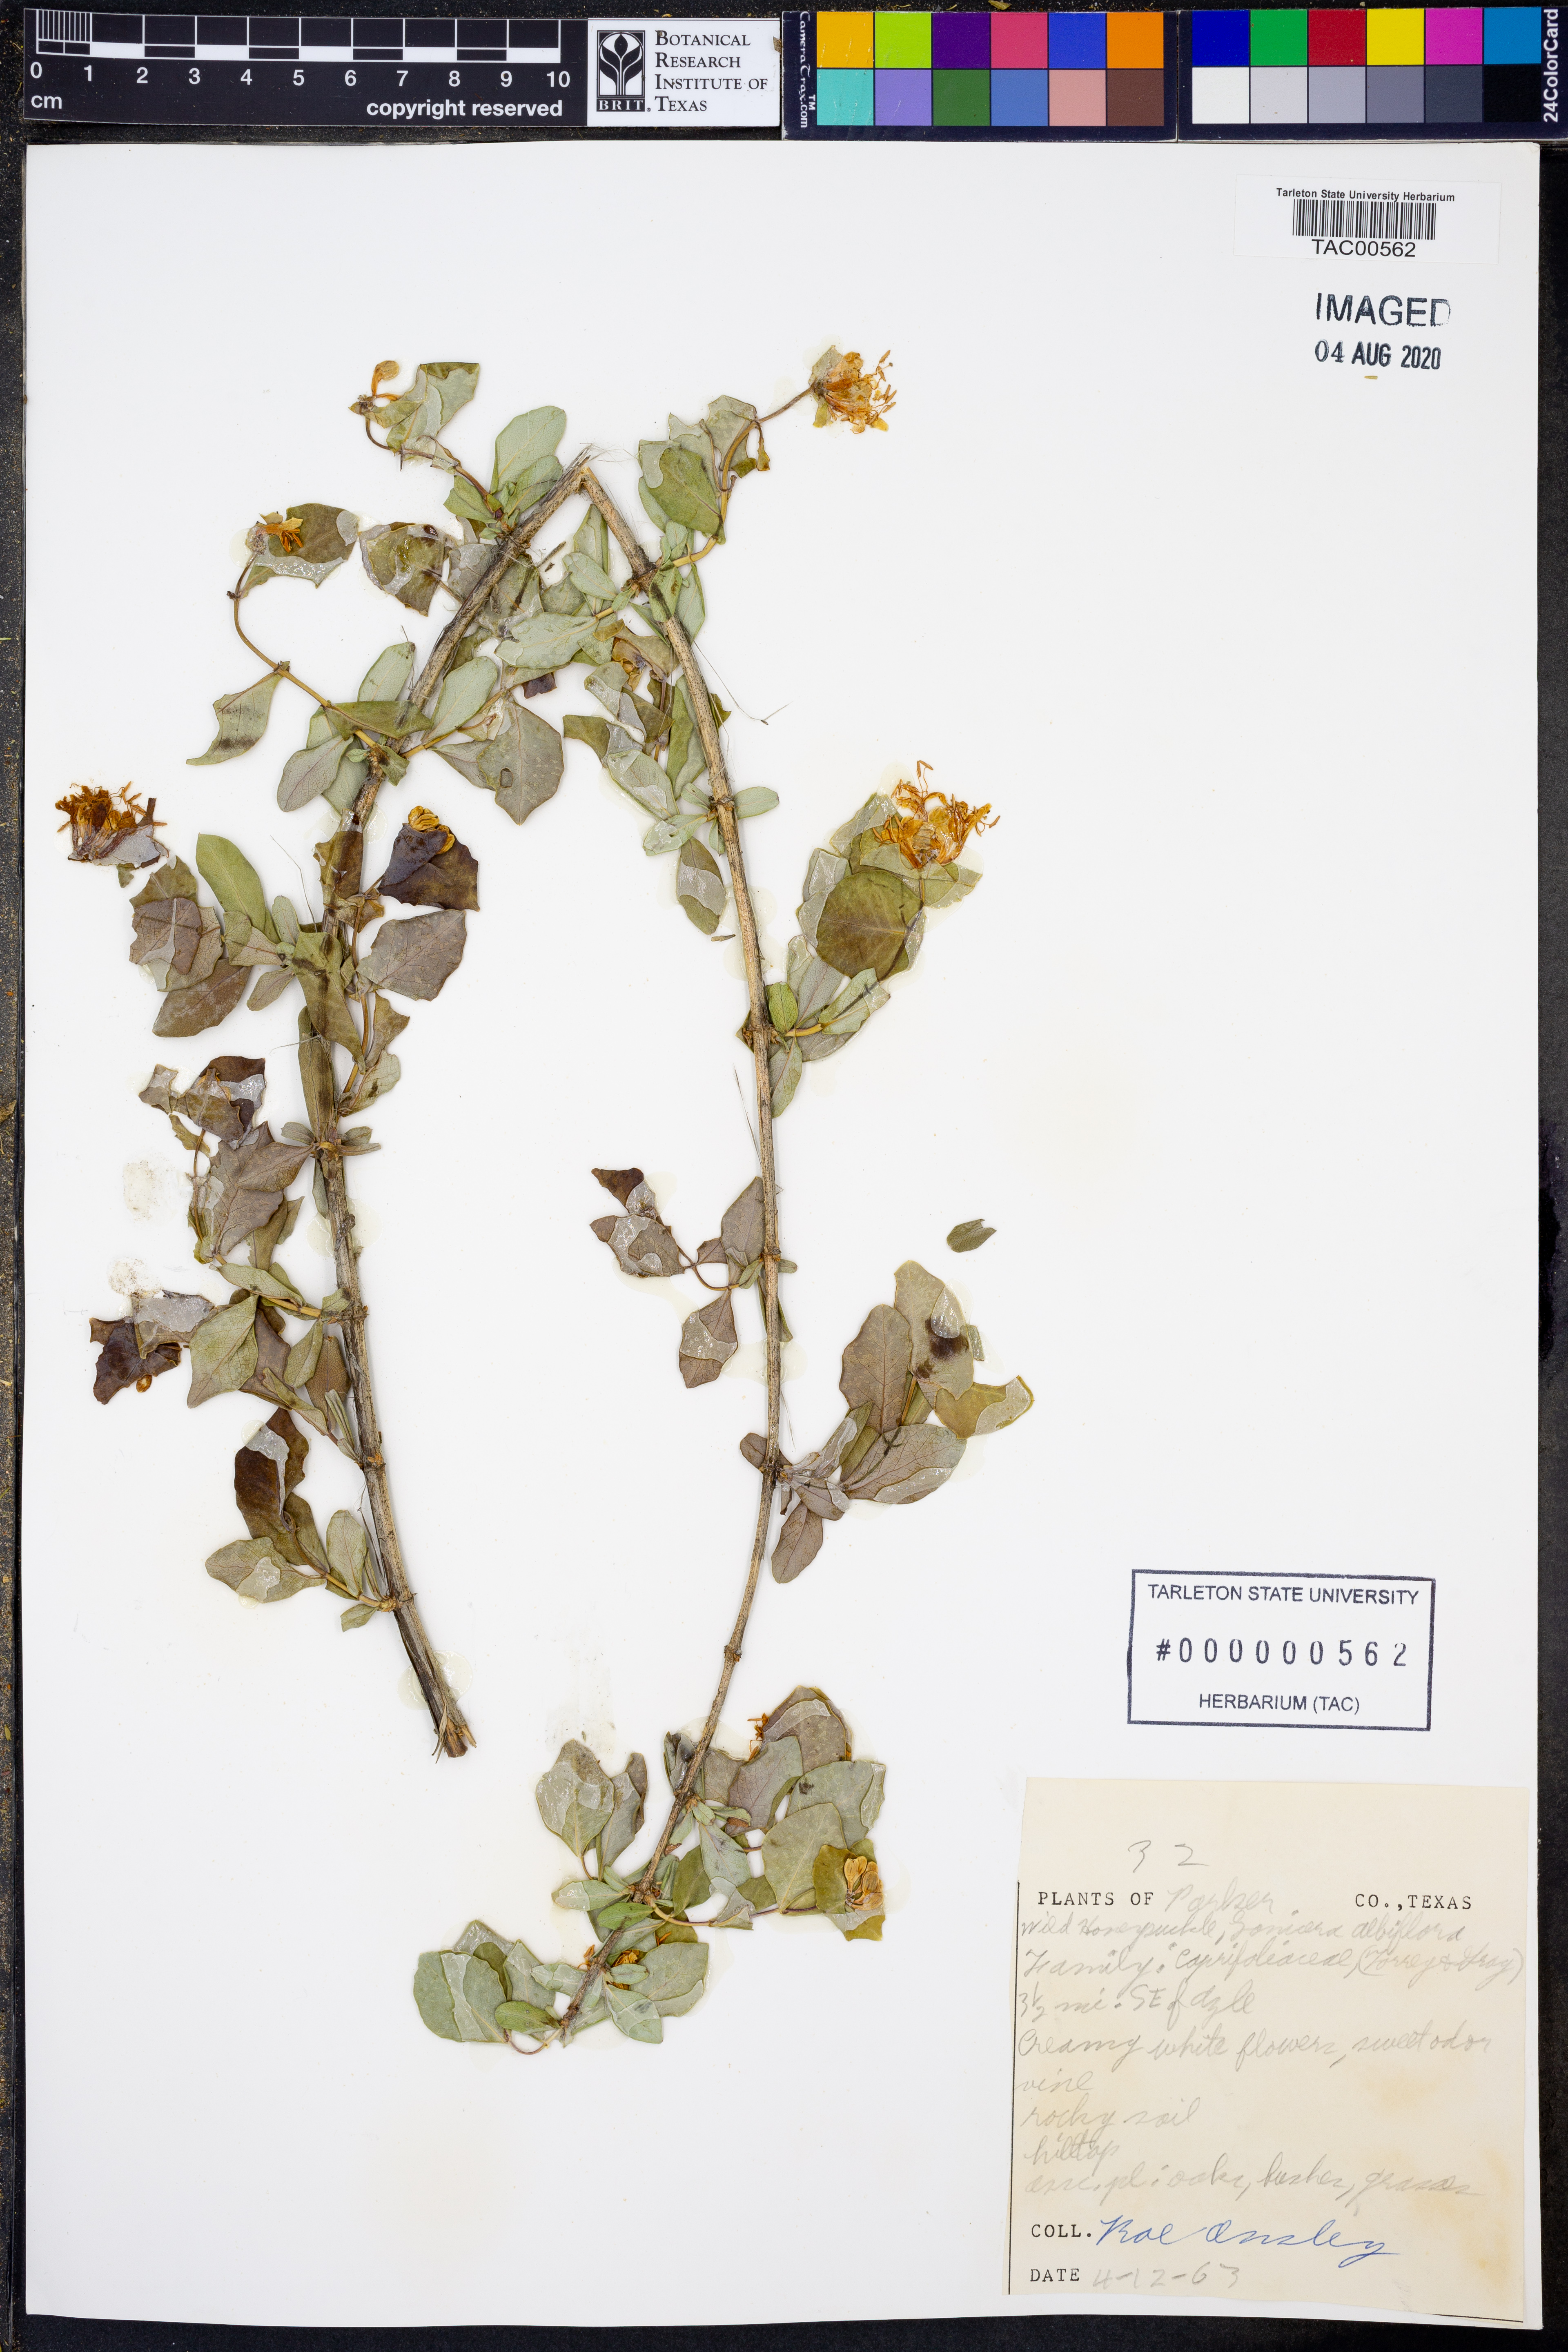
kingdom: Plantae
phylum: Tracheophyta
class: Magnoliopsida
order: Dipsacales
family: Caprifoliaceae
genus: Lonicera
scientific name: Lonicera albiflora
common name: White honeysuckle
